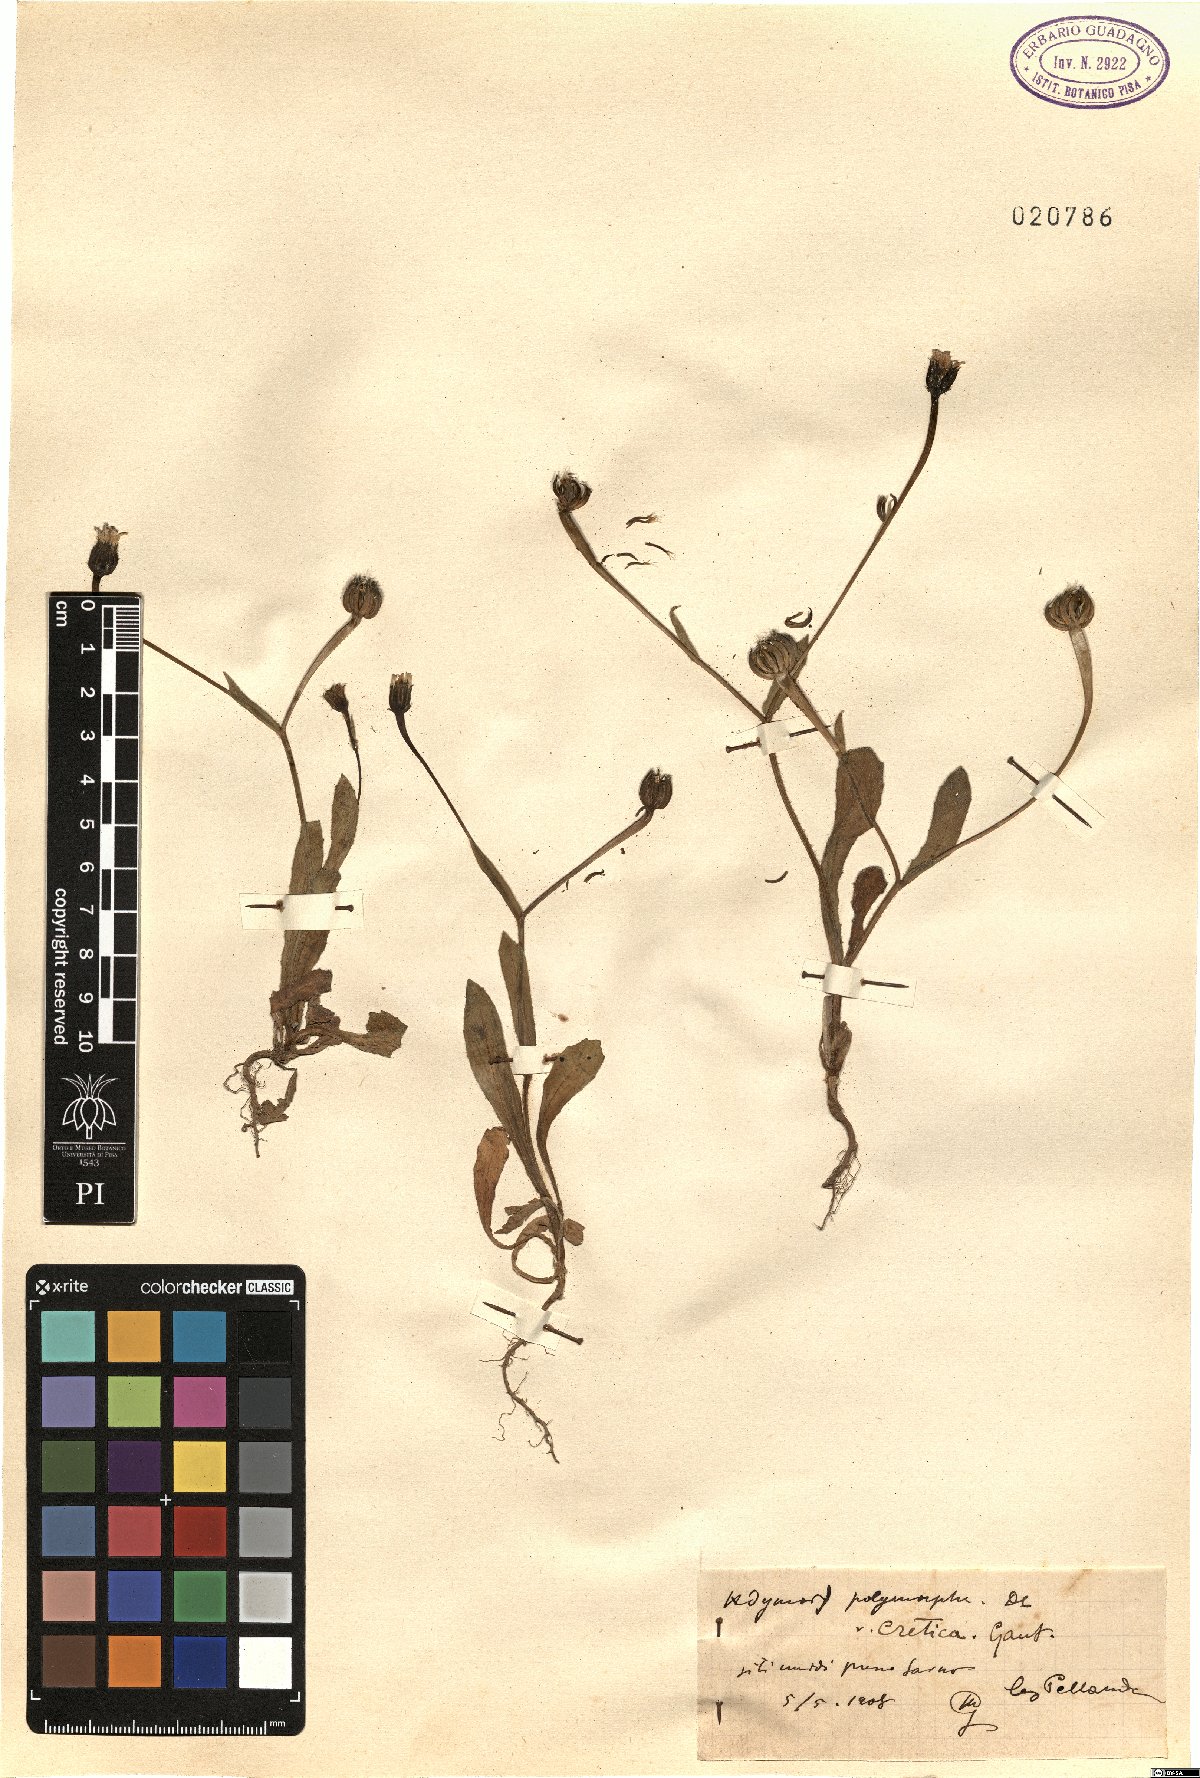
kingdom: Plantae
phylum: Tracheophyta
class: Magnoliopsida
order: Asterales
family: Asteraceae
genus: Hedypnois
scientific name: Hedypnois rhagadioloides
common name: Cretan weed
